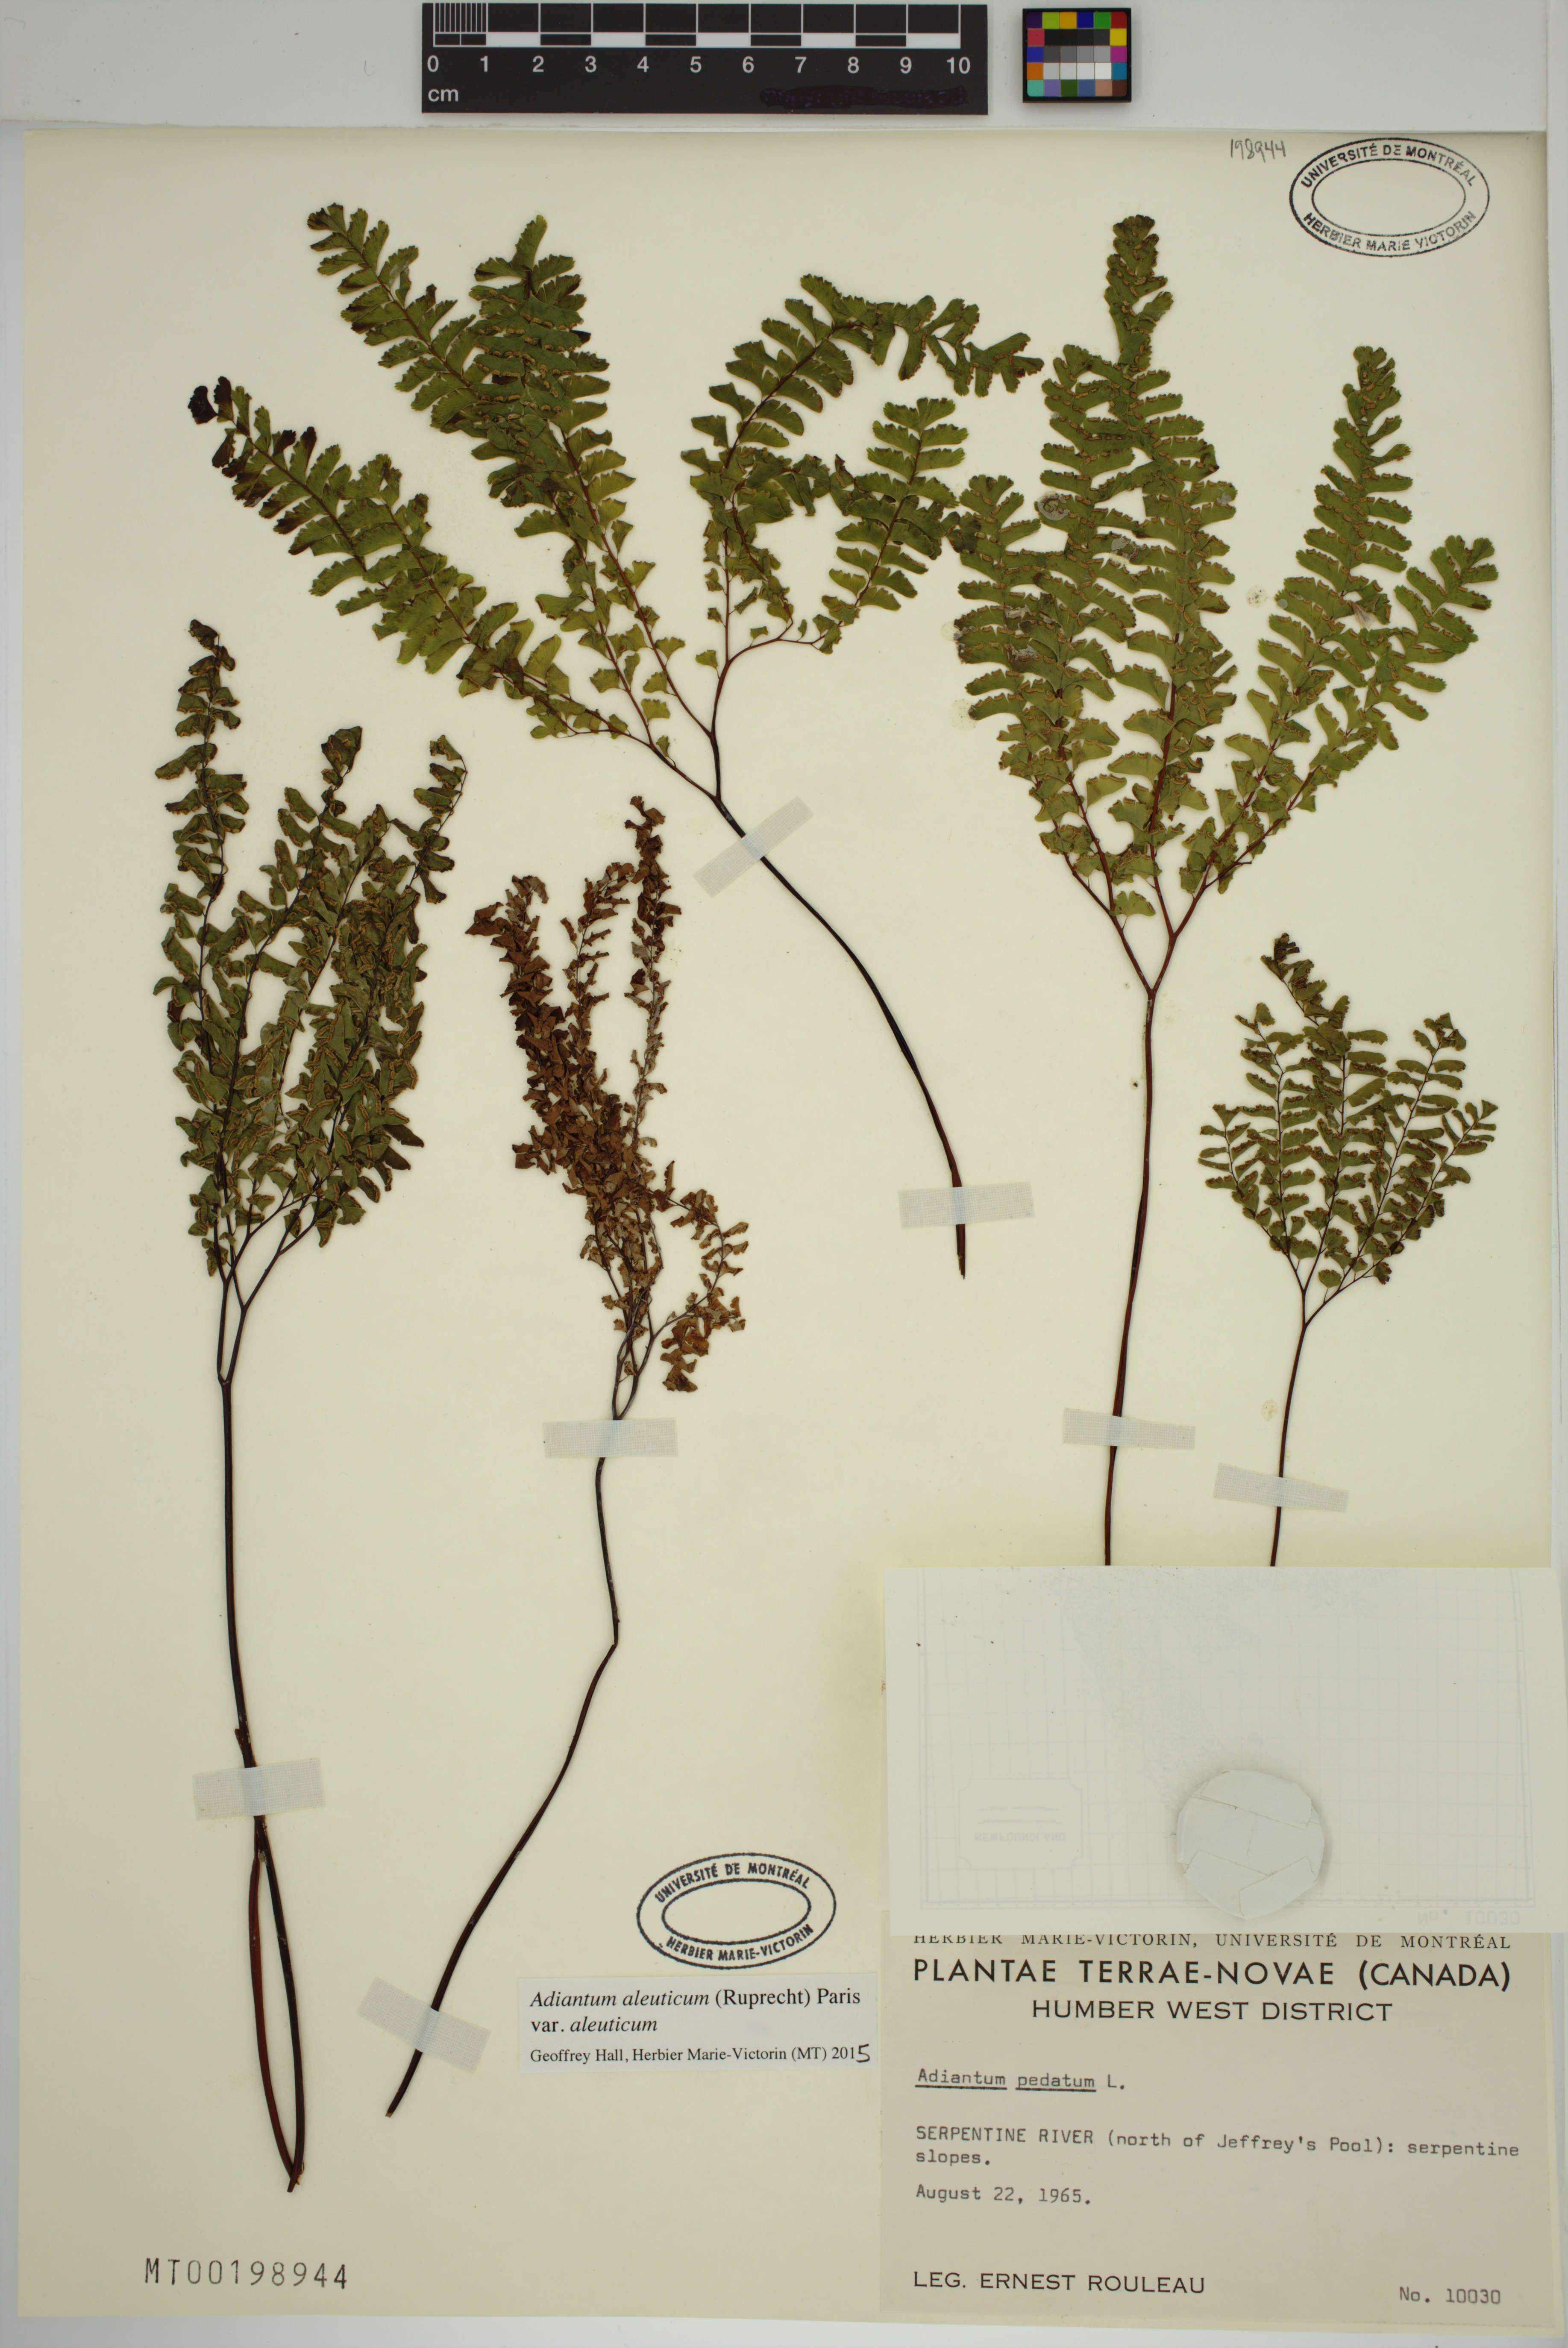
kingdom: Plantae
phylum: Tracheophyta
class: Polypodiopsida
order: Polypodiales
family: Pteridaceae
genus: Adiantum
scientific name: Adiantum aleuticum
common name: Aleutian maidenhair fern
